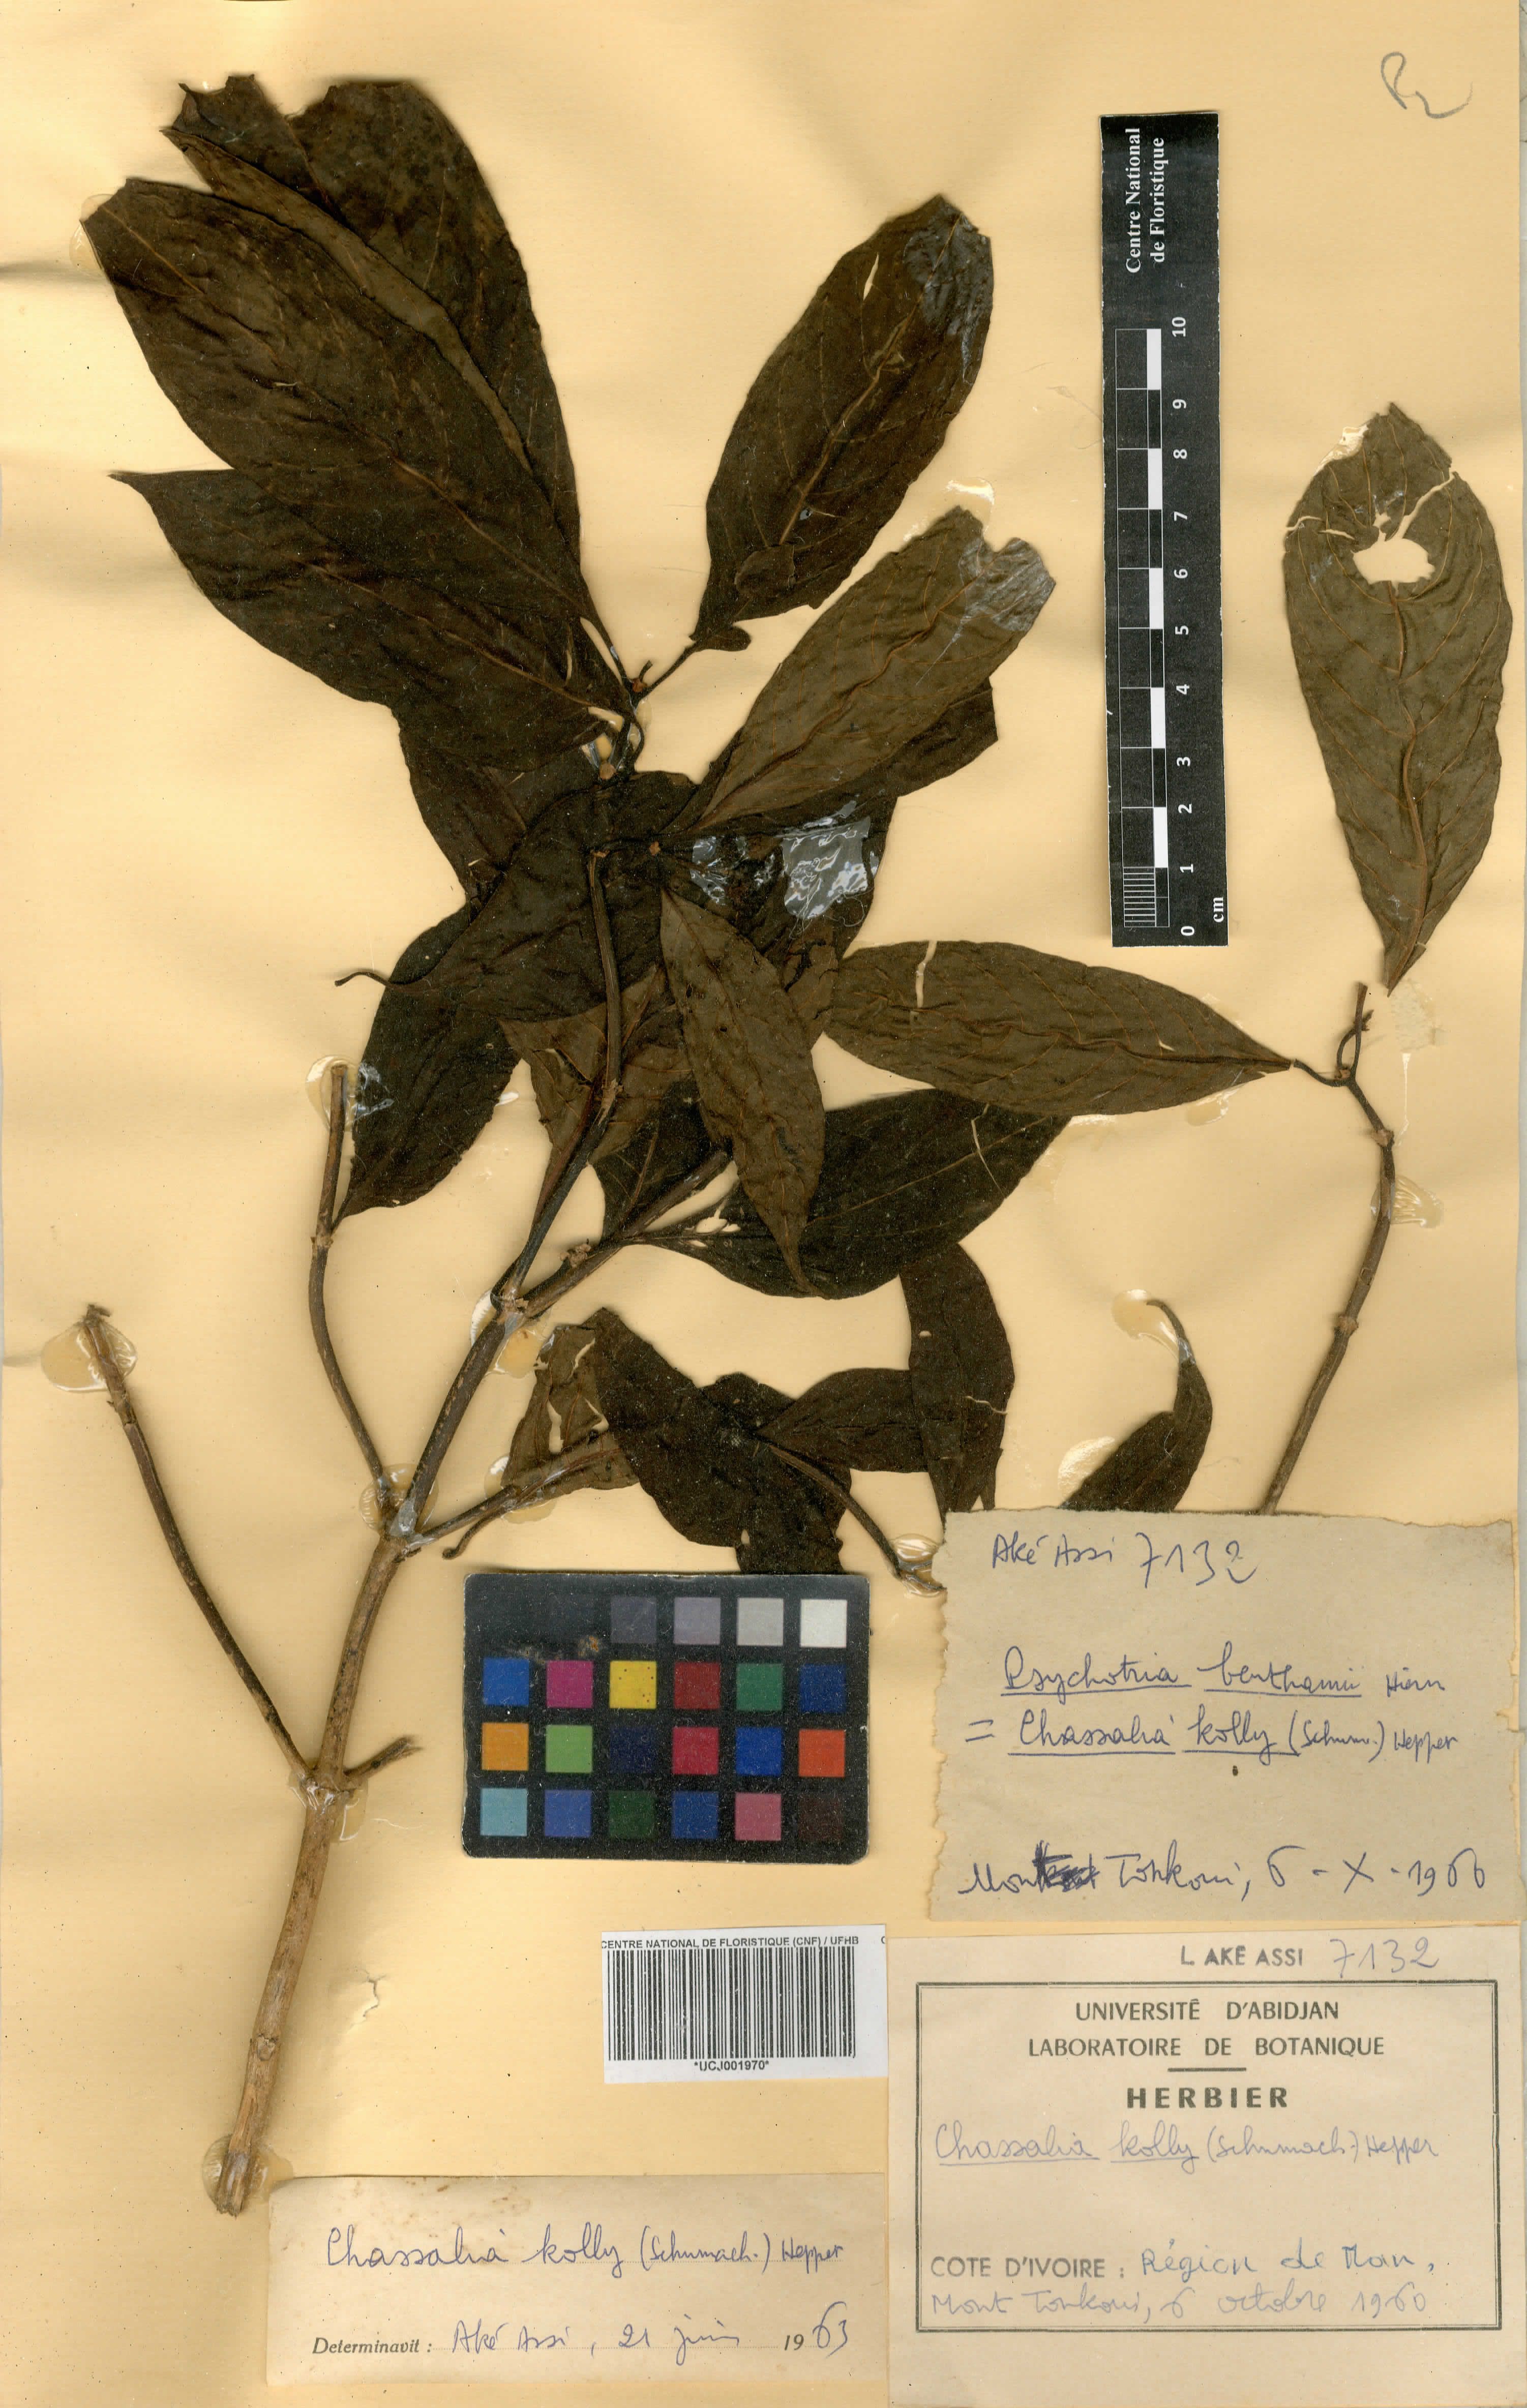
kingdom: Plantae
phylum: Tracheophyta
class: Magnoliopsida
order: Gentianales
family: Rubiaceae
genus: Chassalia
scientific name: Chassalia kolly
